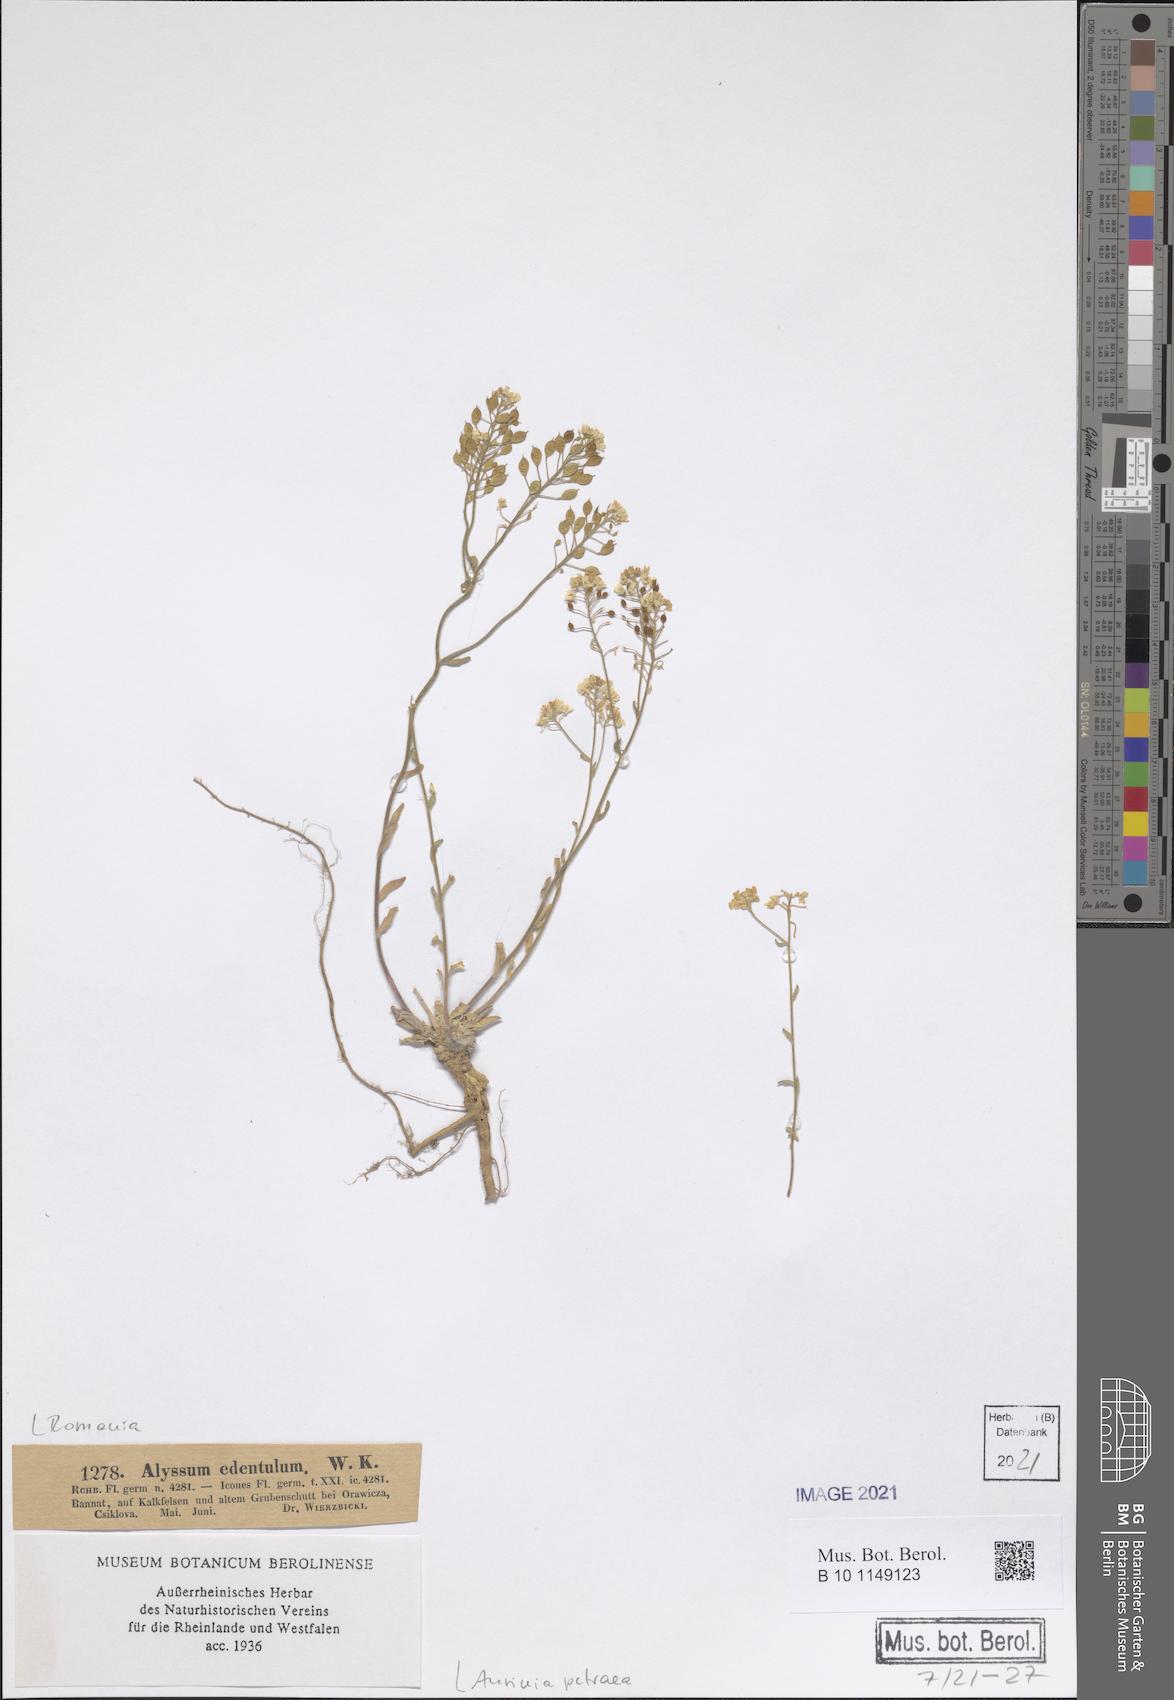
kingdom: Plantae
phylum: Tracheophyta
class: Magnoliopsida
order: Brassicales
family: Brassicaceae
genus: Aurinia
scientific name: Aurinia petraea
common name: Goldentuft
